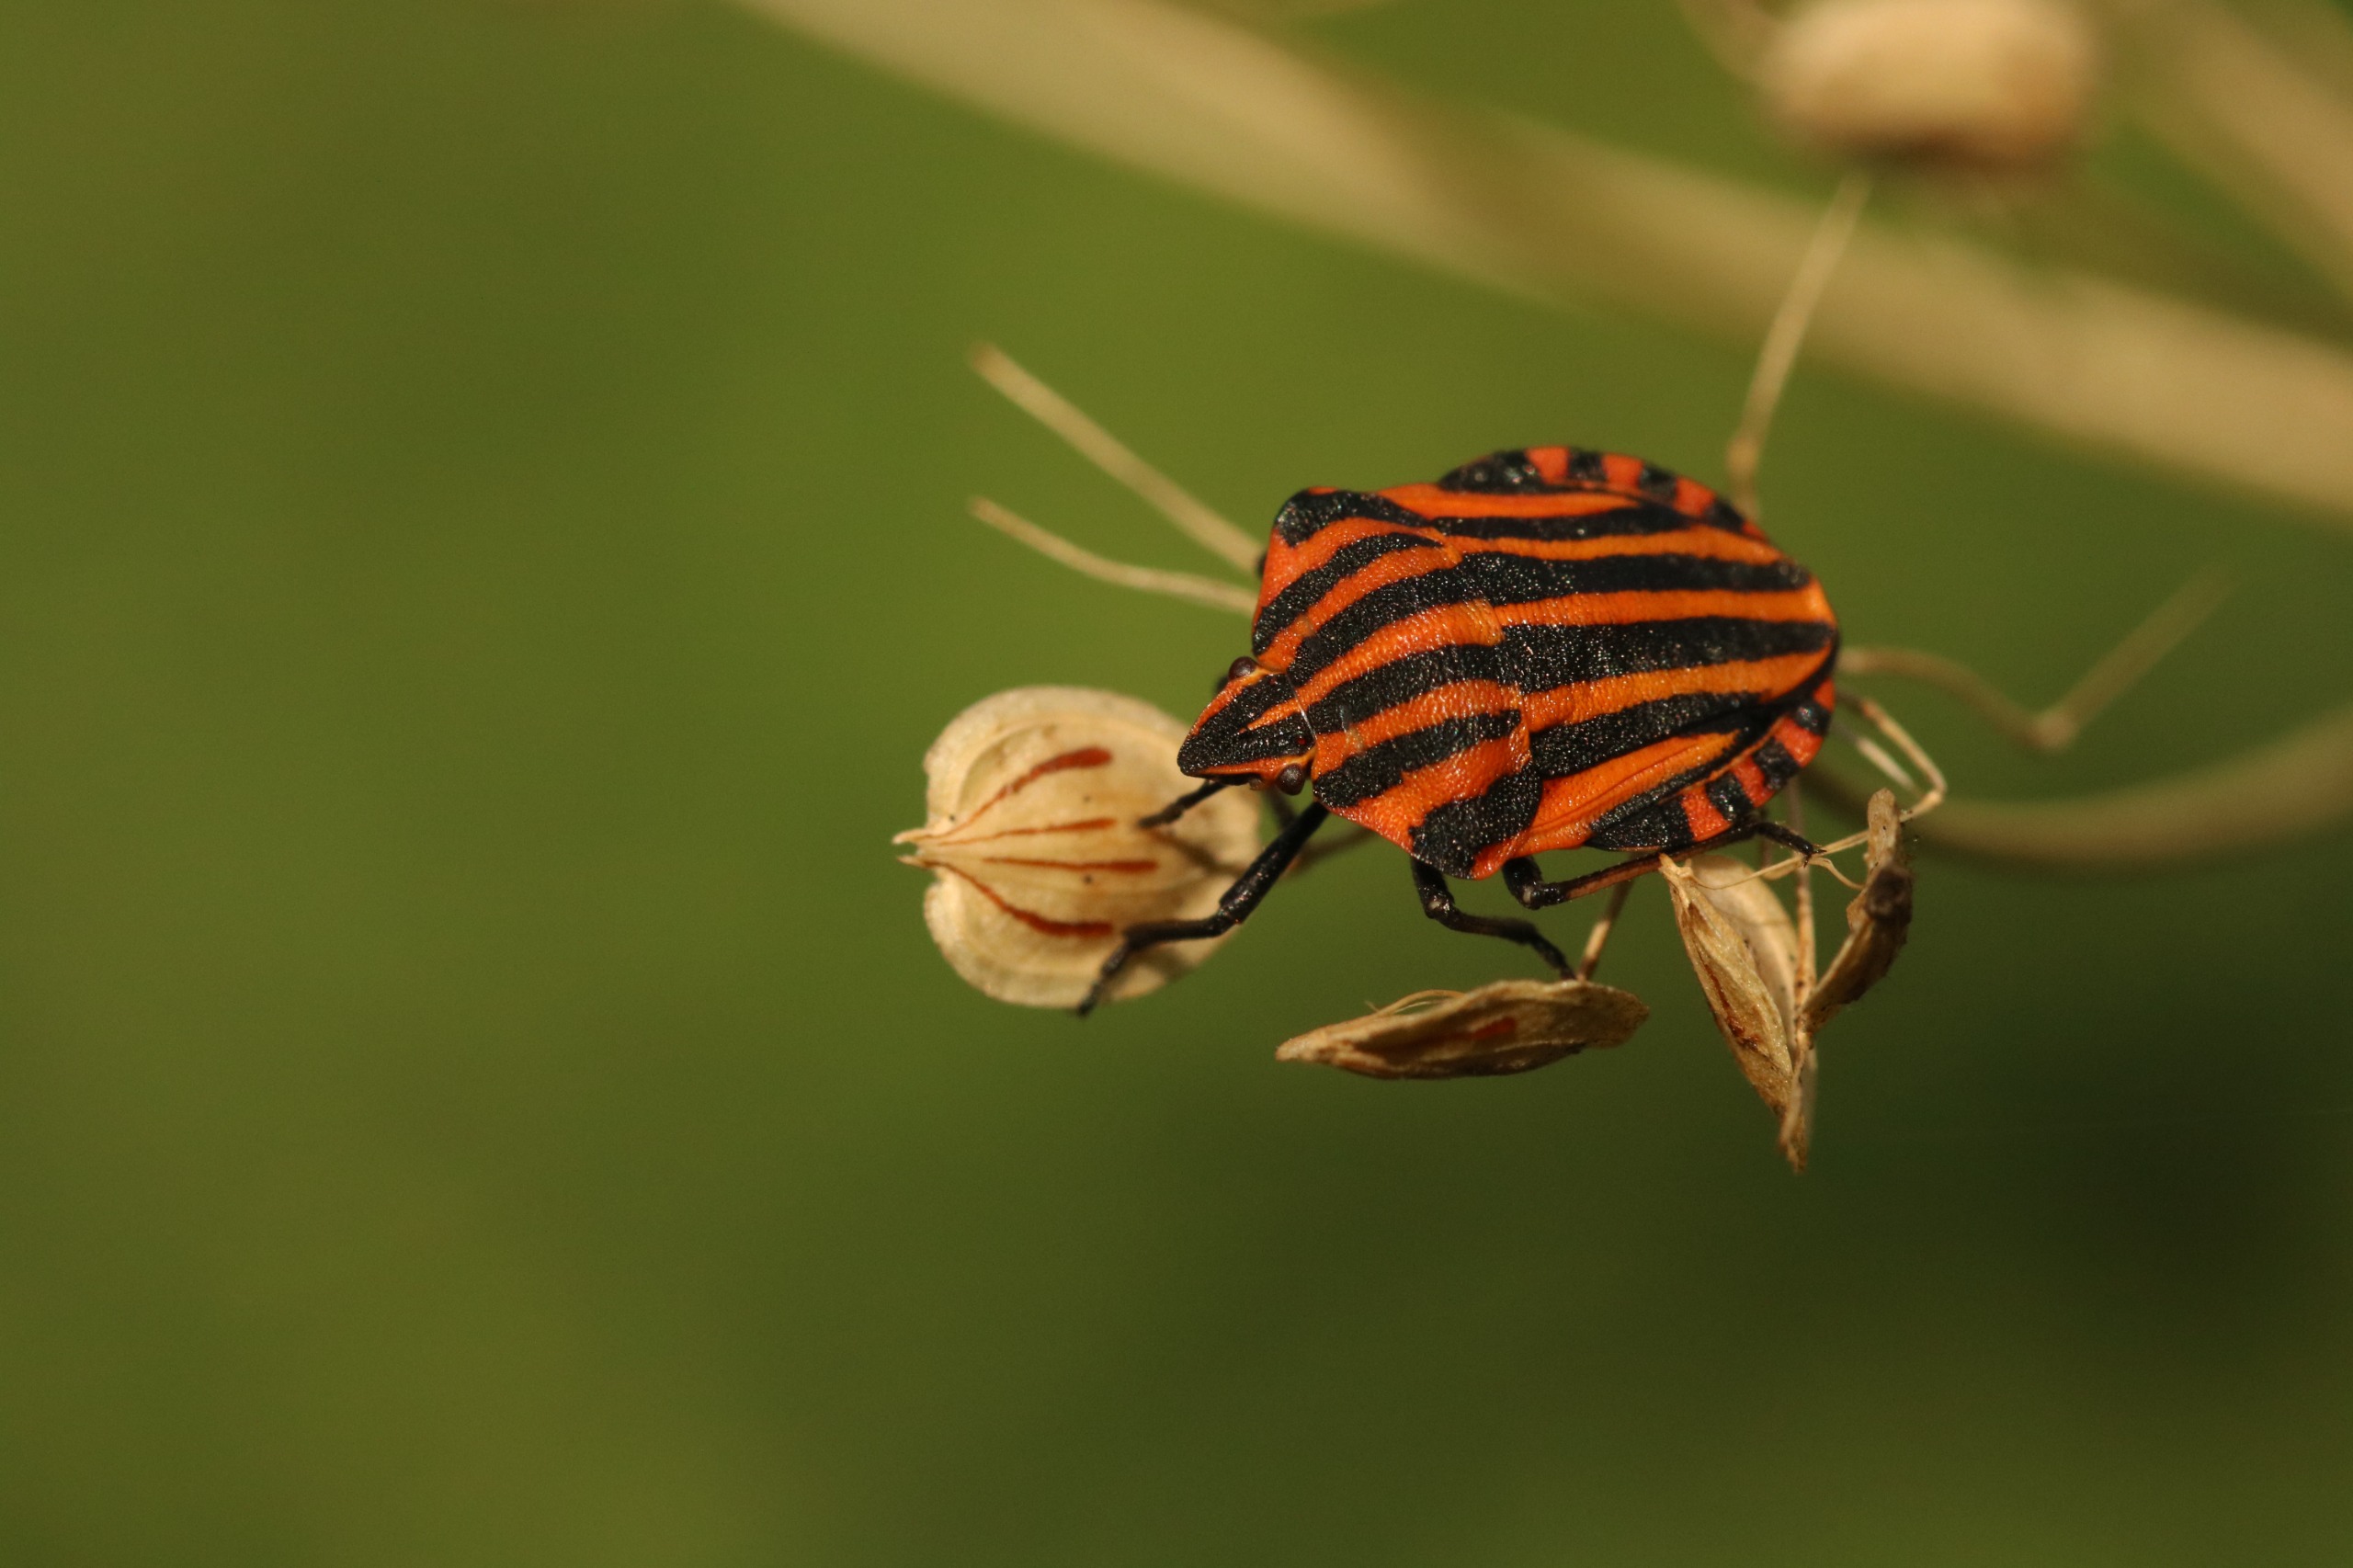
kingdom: Animalia
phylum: Arthropoda
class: Insecta
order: Hemiptera
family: Pentatomidae
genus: Graphosoma
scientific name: Graphosoma italicum
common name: Stribetæge
